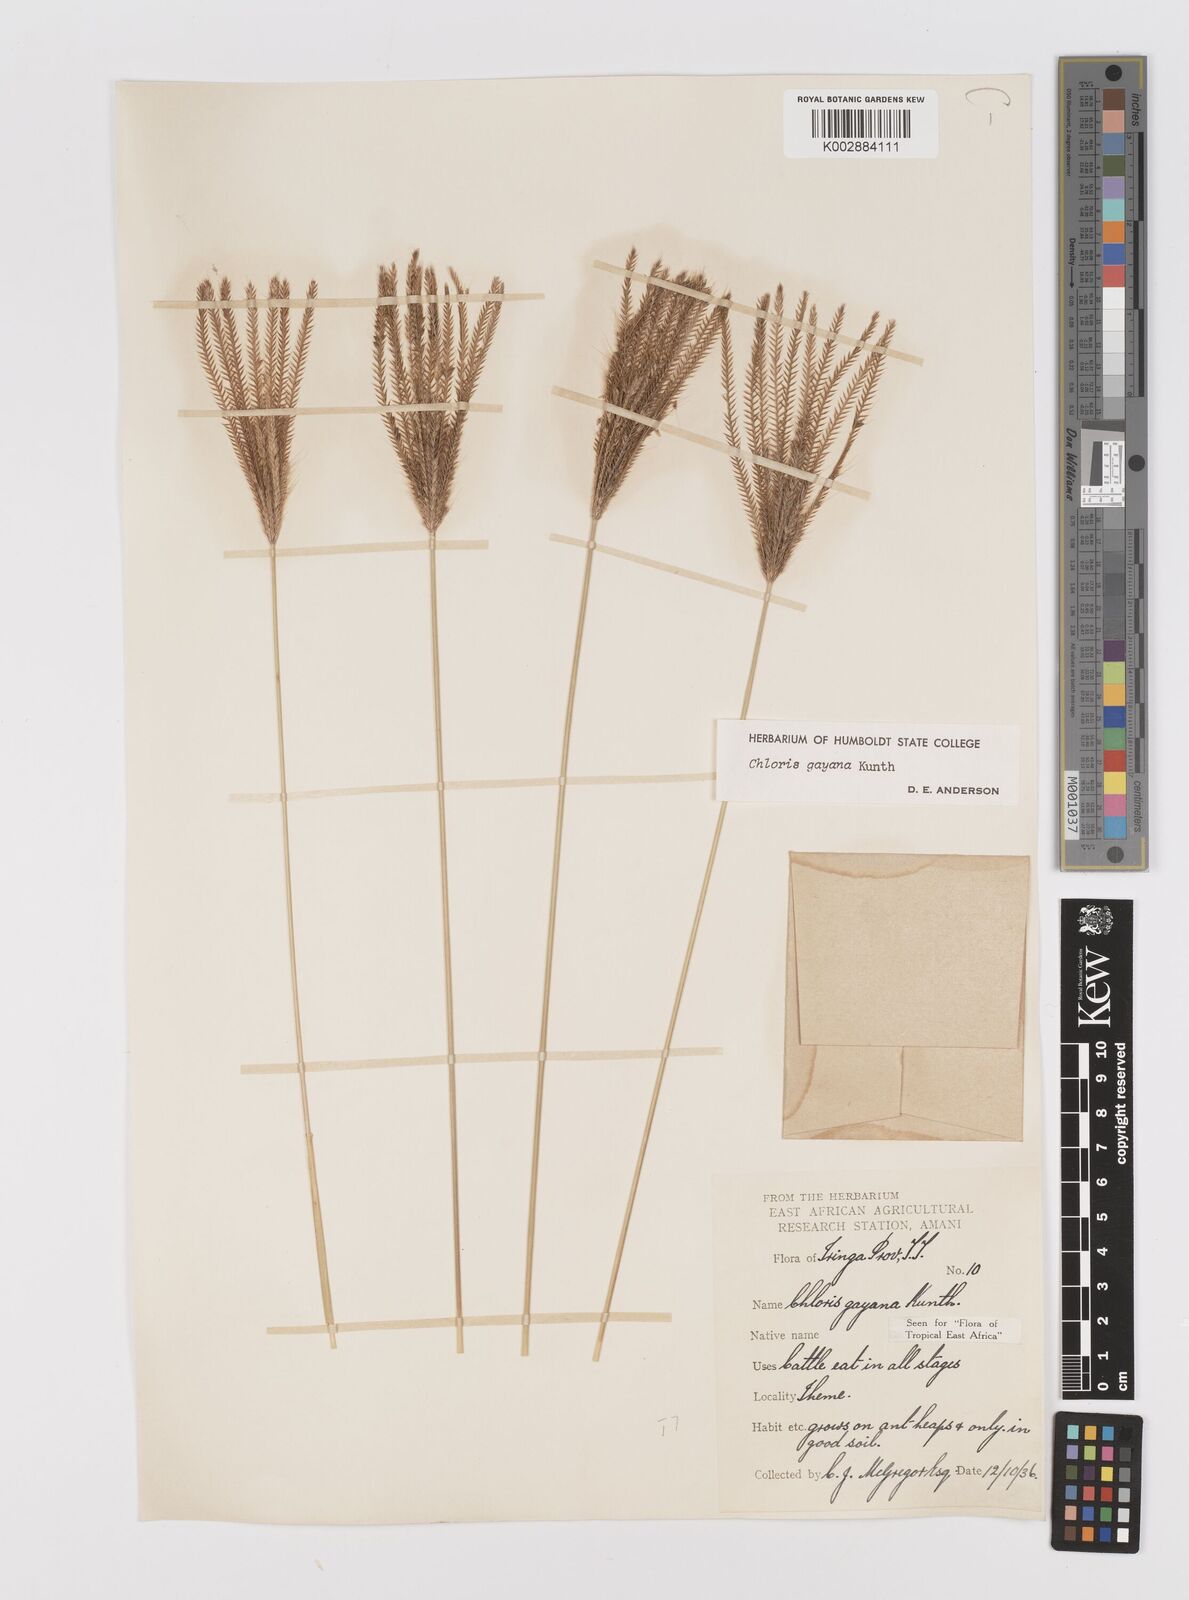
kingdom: Plantae
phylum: Tracheophyta
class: Liliopsida
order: Poales
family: Poaceae
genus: Chloris
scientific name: Chloris gayana
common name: Rhodes grass
